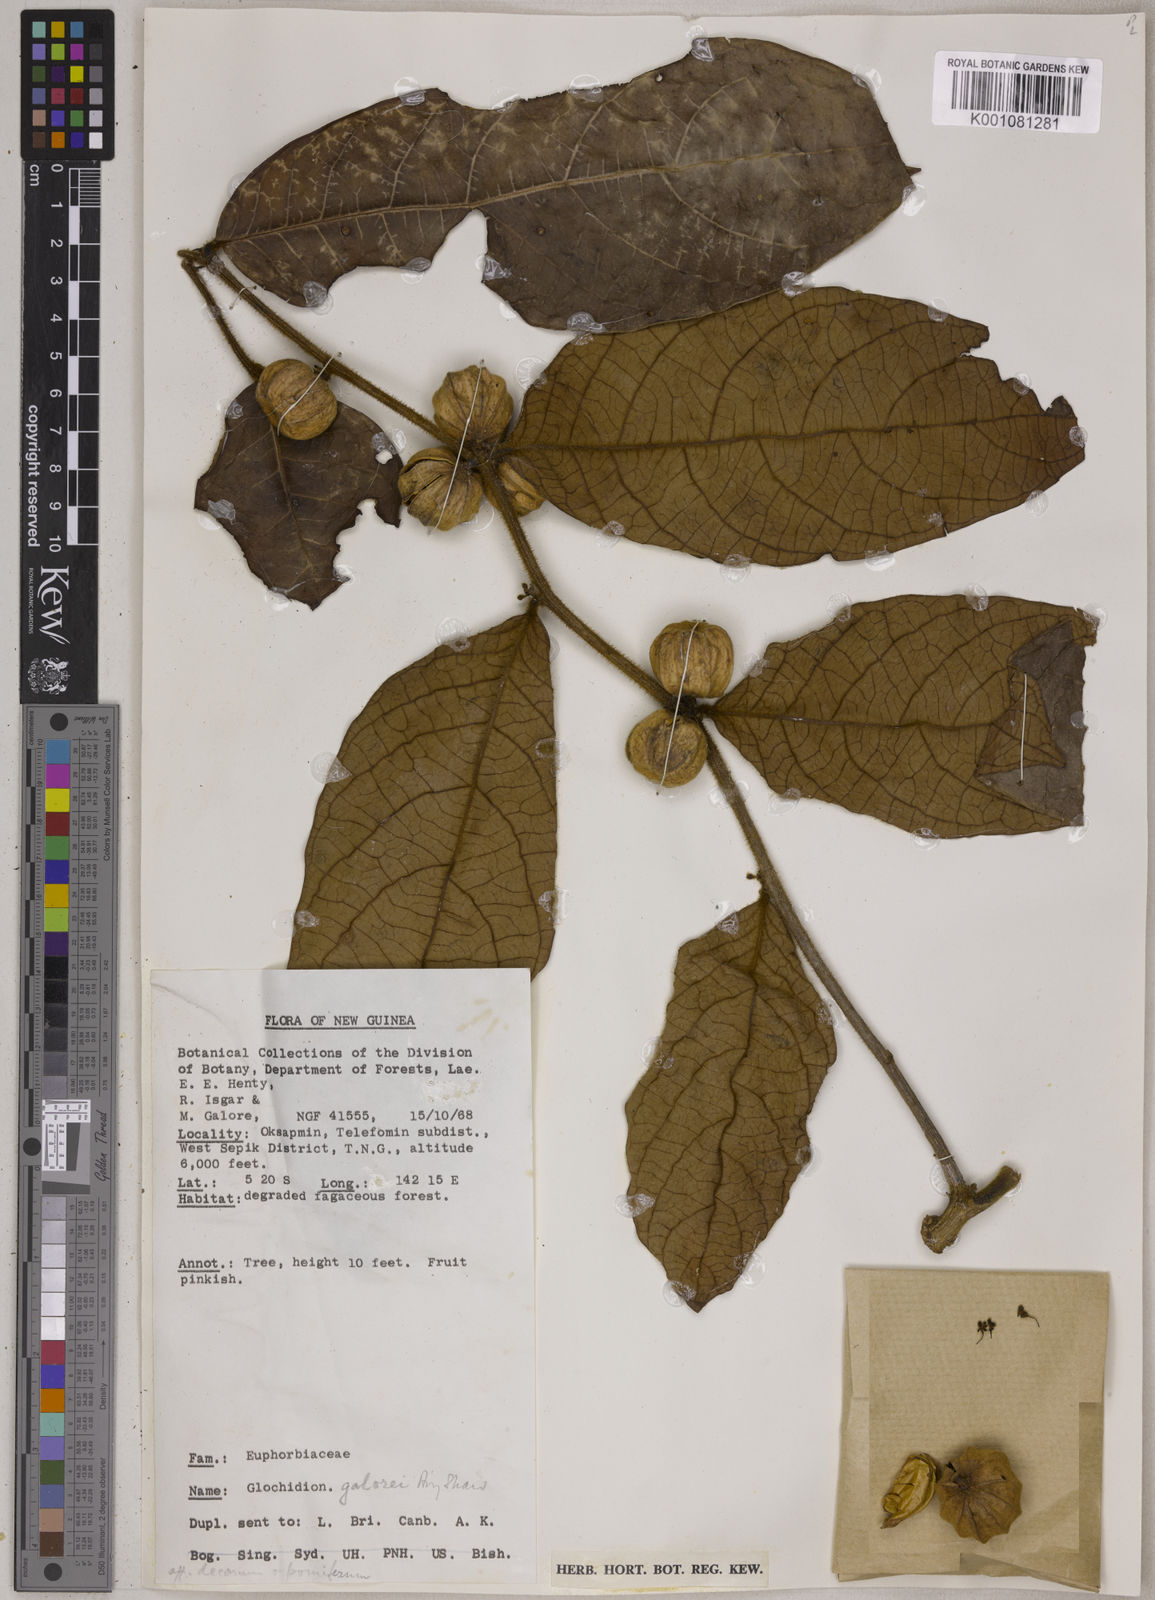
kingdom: Plantae
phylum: Tracheophyta
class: Magnoliopsida
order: Malpighiales
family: Phyllanthaceae
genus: Glochidion
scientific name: Glochidion galorii
